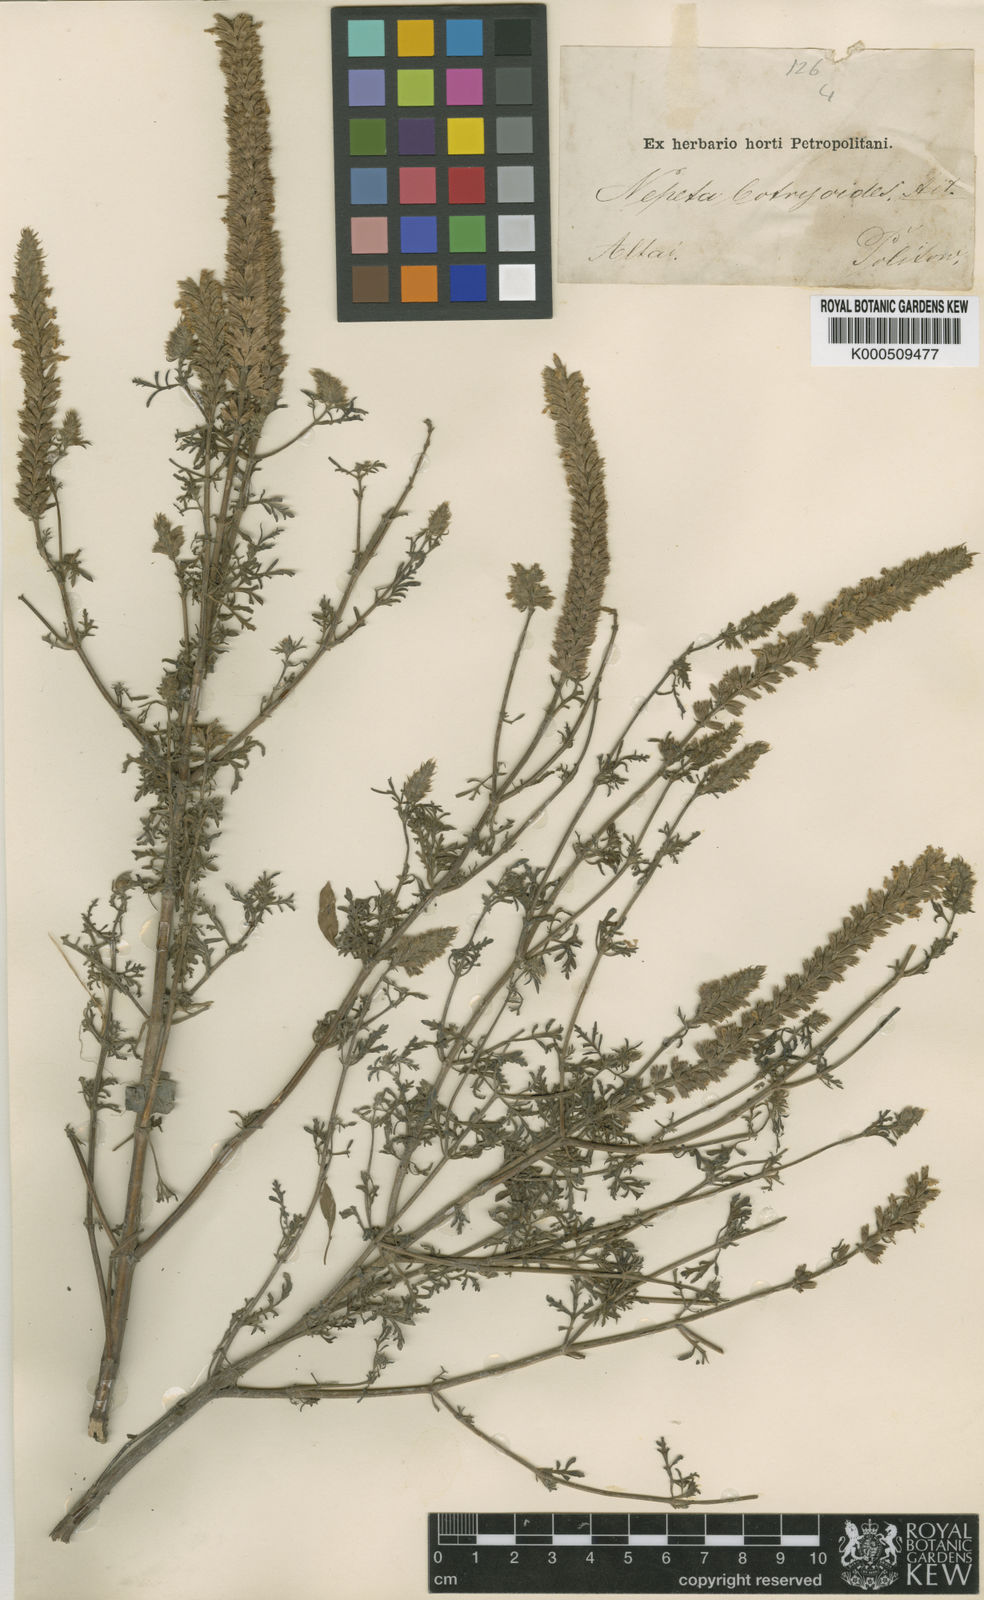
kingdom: Plantae
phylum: Tracheophyta
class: Magnoliopsida
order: Lamiales
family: Lamiaceae
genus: Nepeta
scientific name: Nepeta annua
